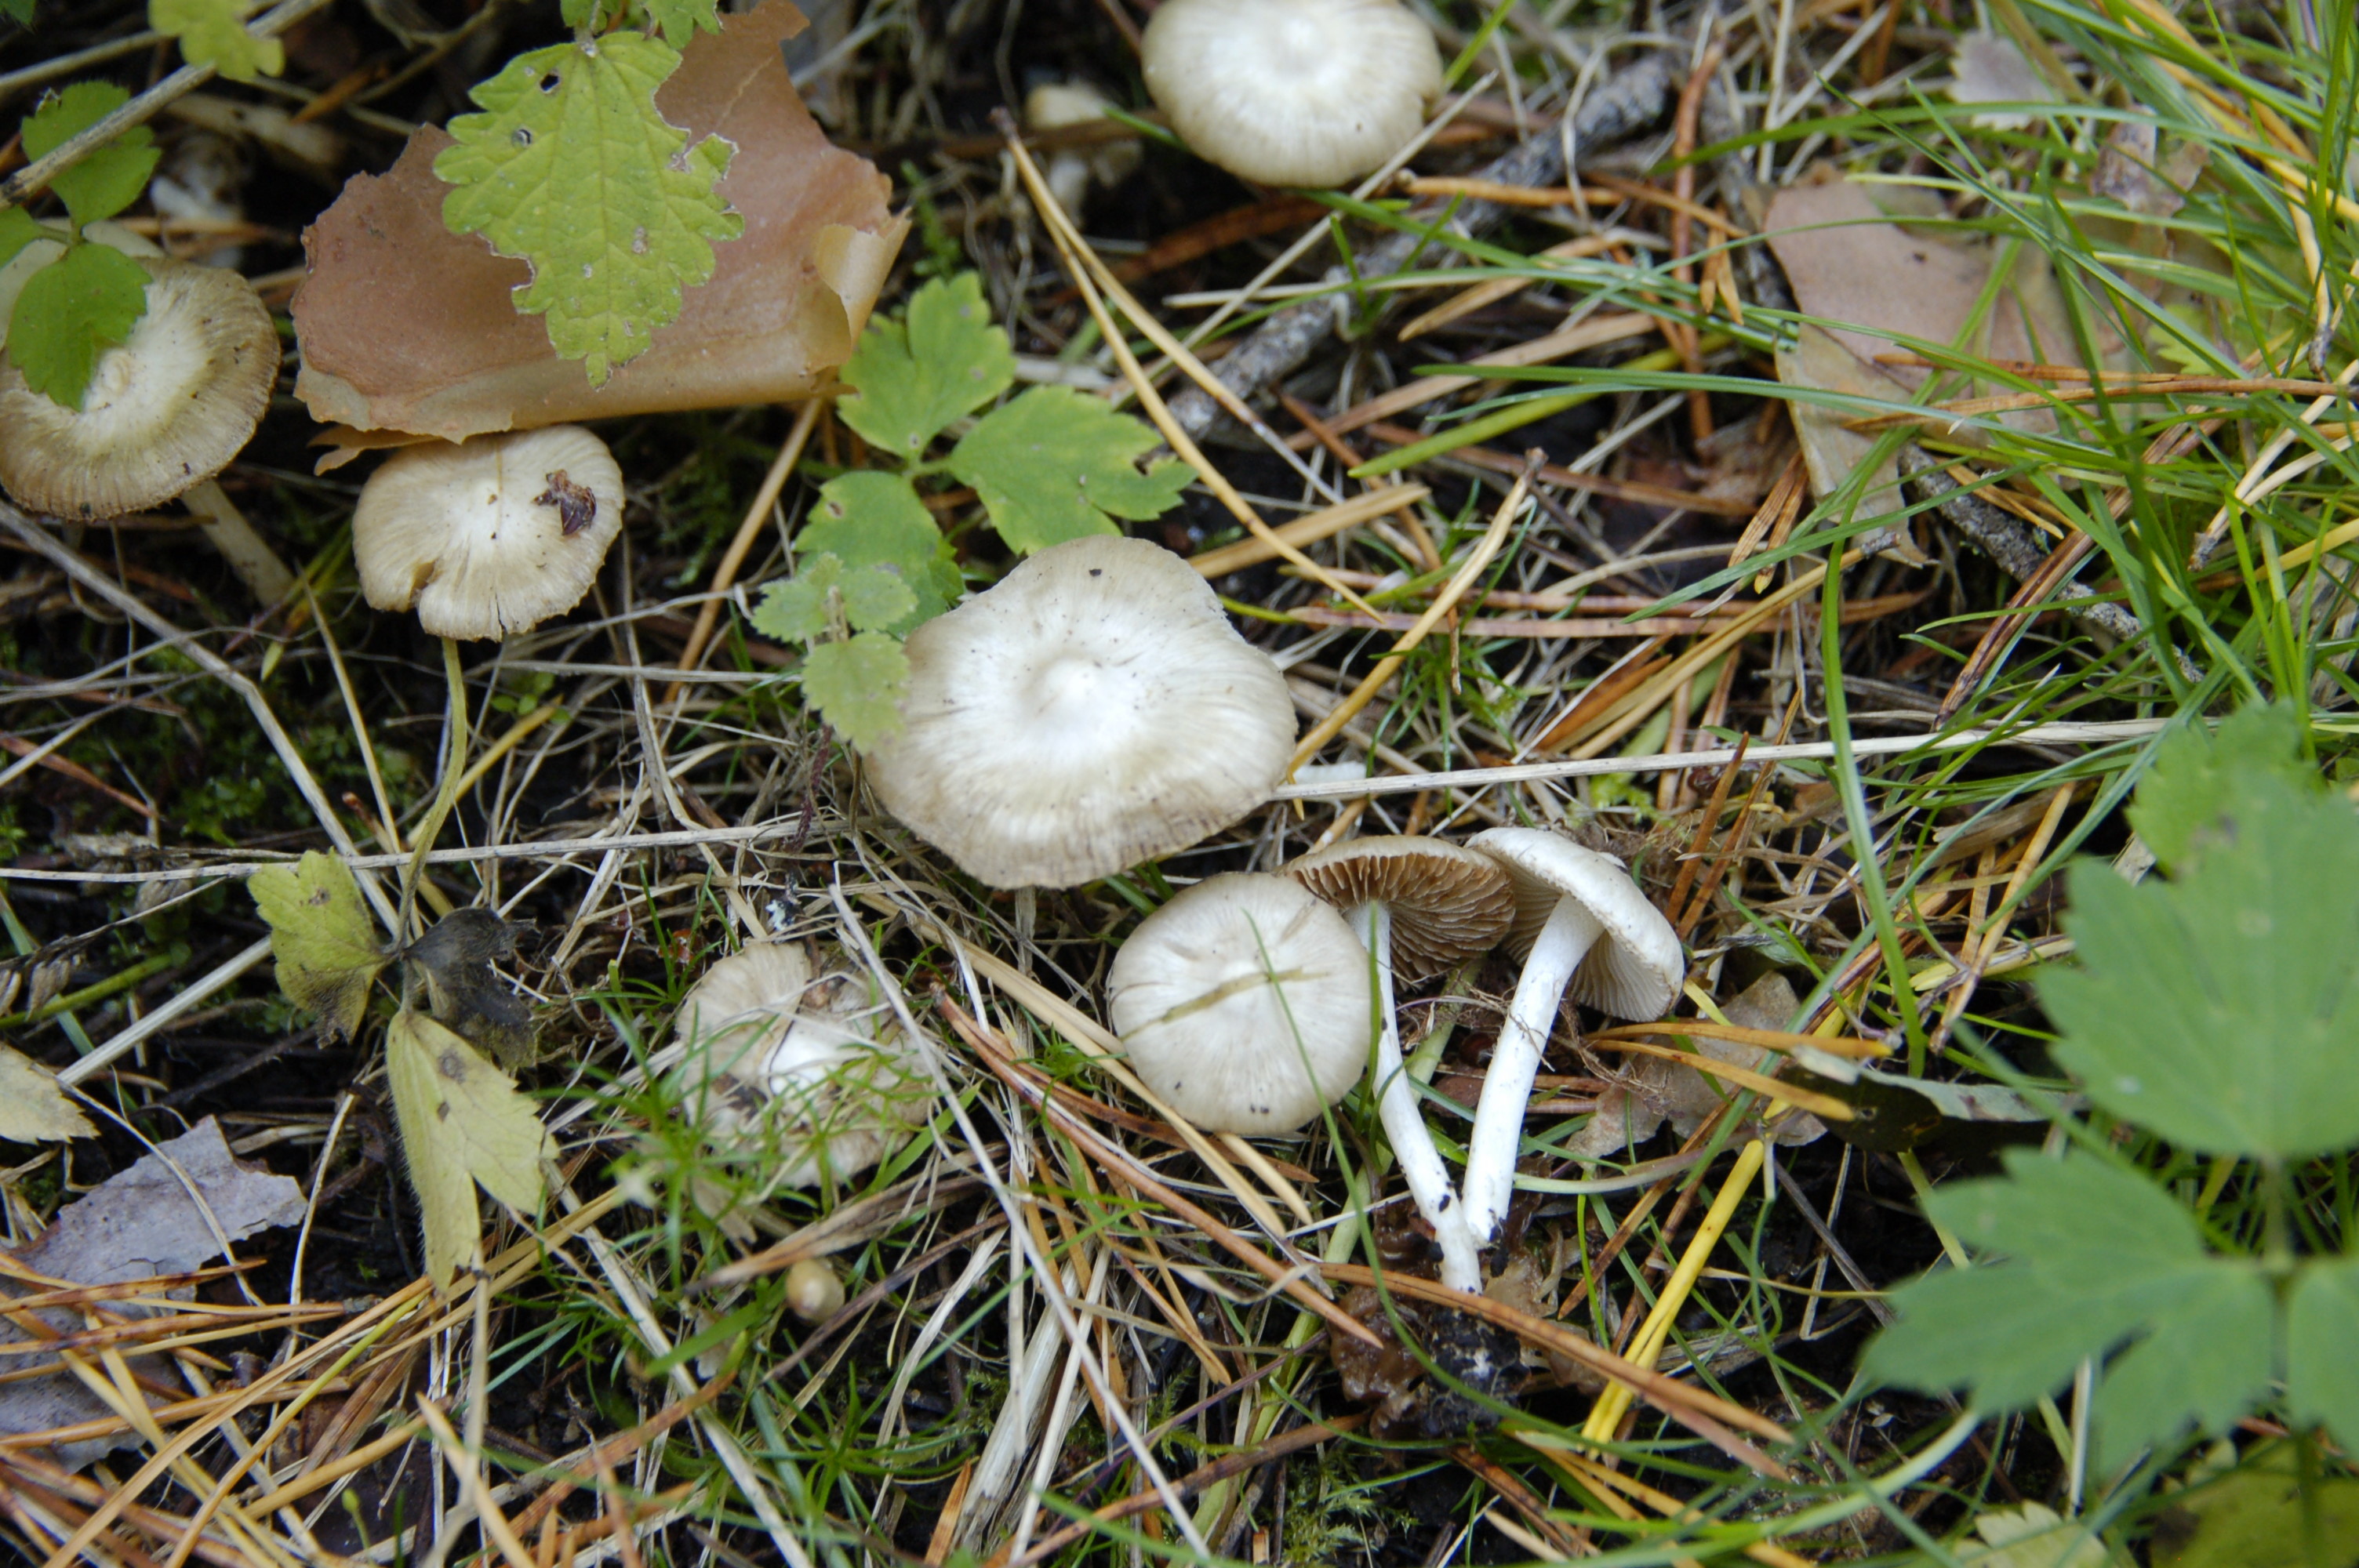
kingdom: Fungi
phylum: Basidiomycota
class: Agaricomycetes
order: Agaricales
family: Inocybaceae
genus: Inocybe
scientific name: Inocybe geophylla
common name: White fibrecap
